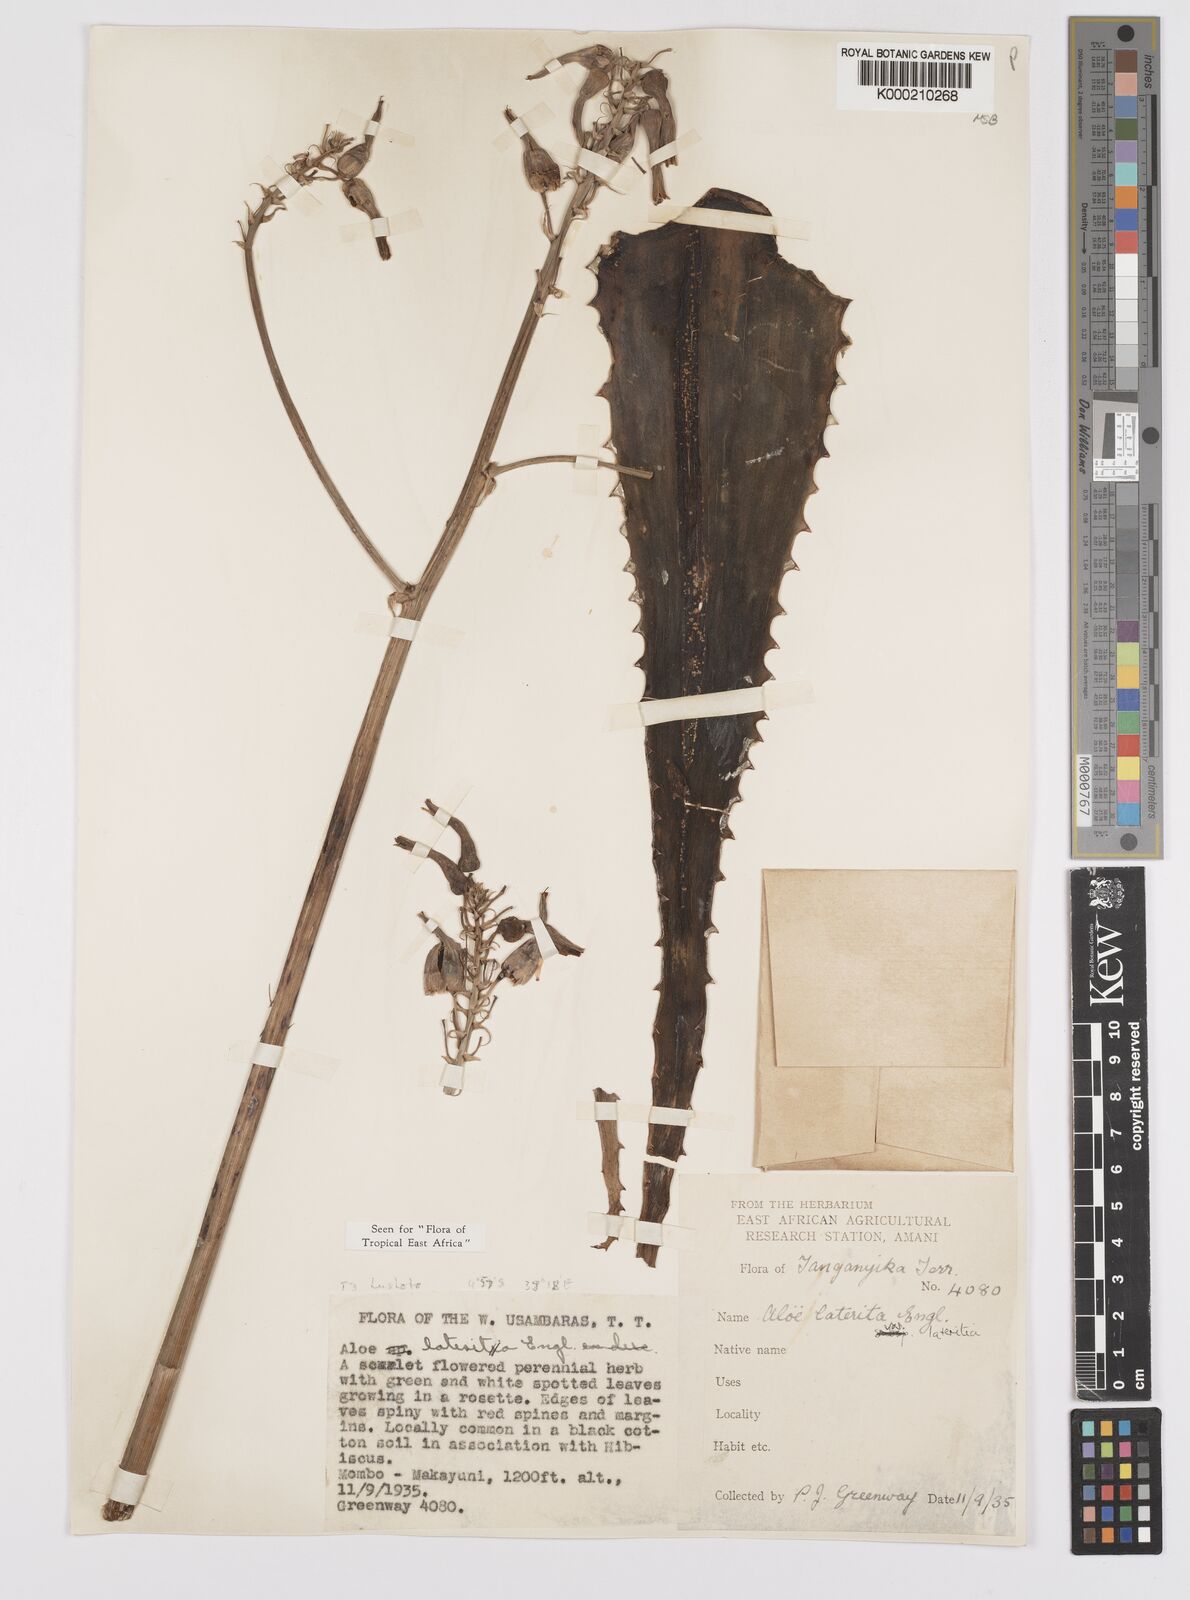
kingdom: Plantae
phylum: Tracheophyta
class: Liliopsida
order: Asparagales
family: Asphodelaceae
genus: Aloe
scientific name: Aloe lateritia
